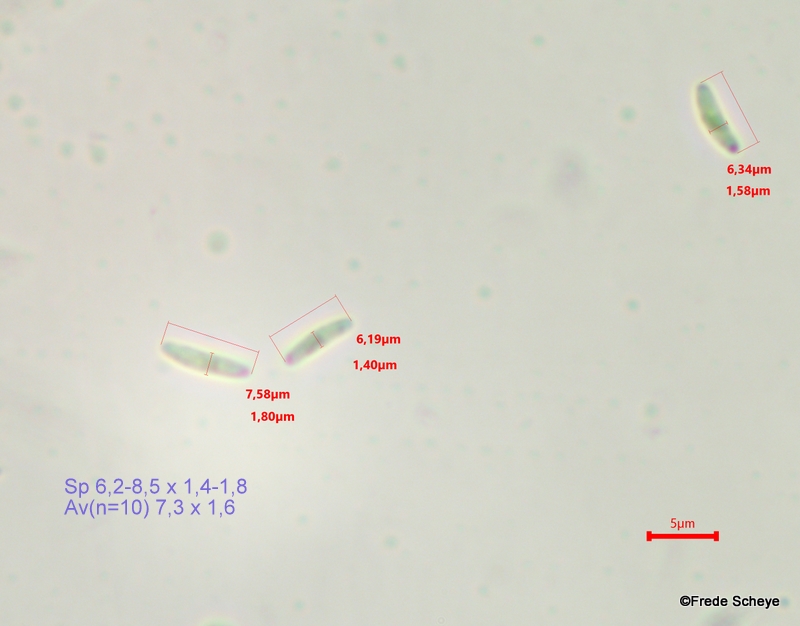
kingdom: Fungi
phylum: Ascomycota
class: Leotiomycetes
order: Helotiales
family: Chlorociboriaceae
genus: Chlorociboria
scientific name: Chlorociboria aeruginascens
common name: almindelig grønskive
